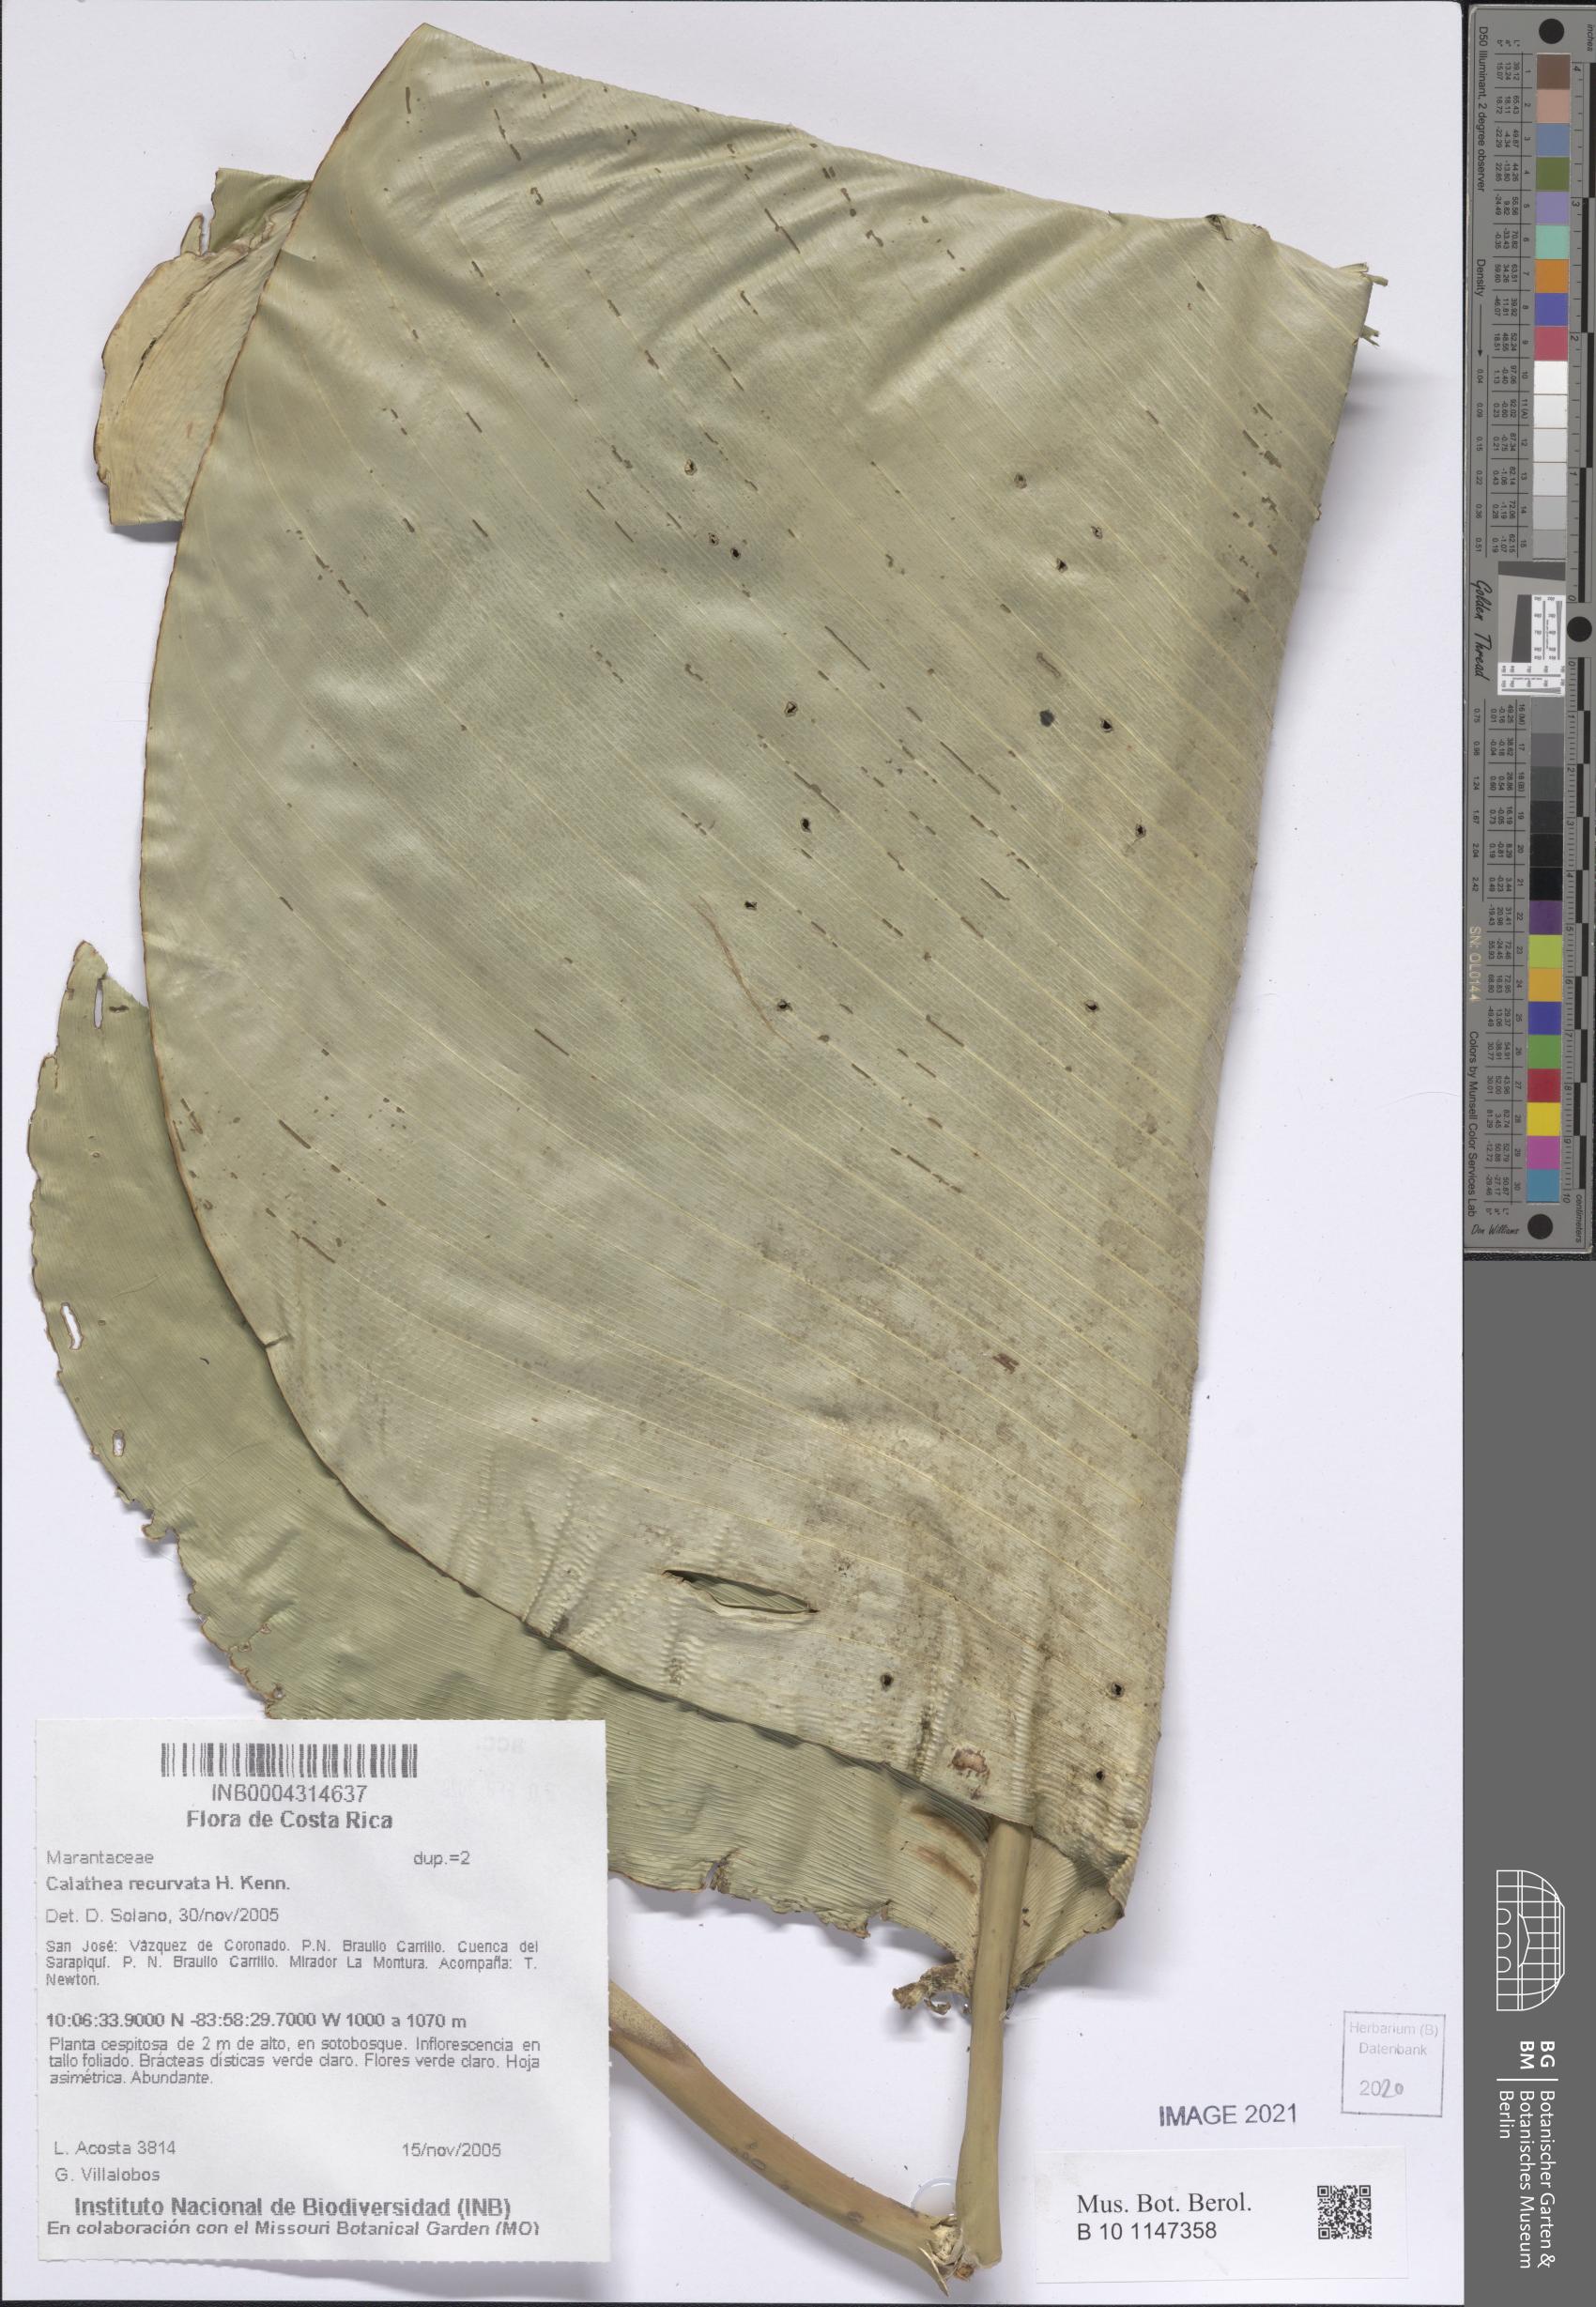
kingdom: Plantae
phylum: Tracheophyta
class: Liliopsida
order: Zingiberales
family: Marantaceae
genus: Calathea
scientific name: Calathea recurvata
